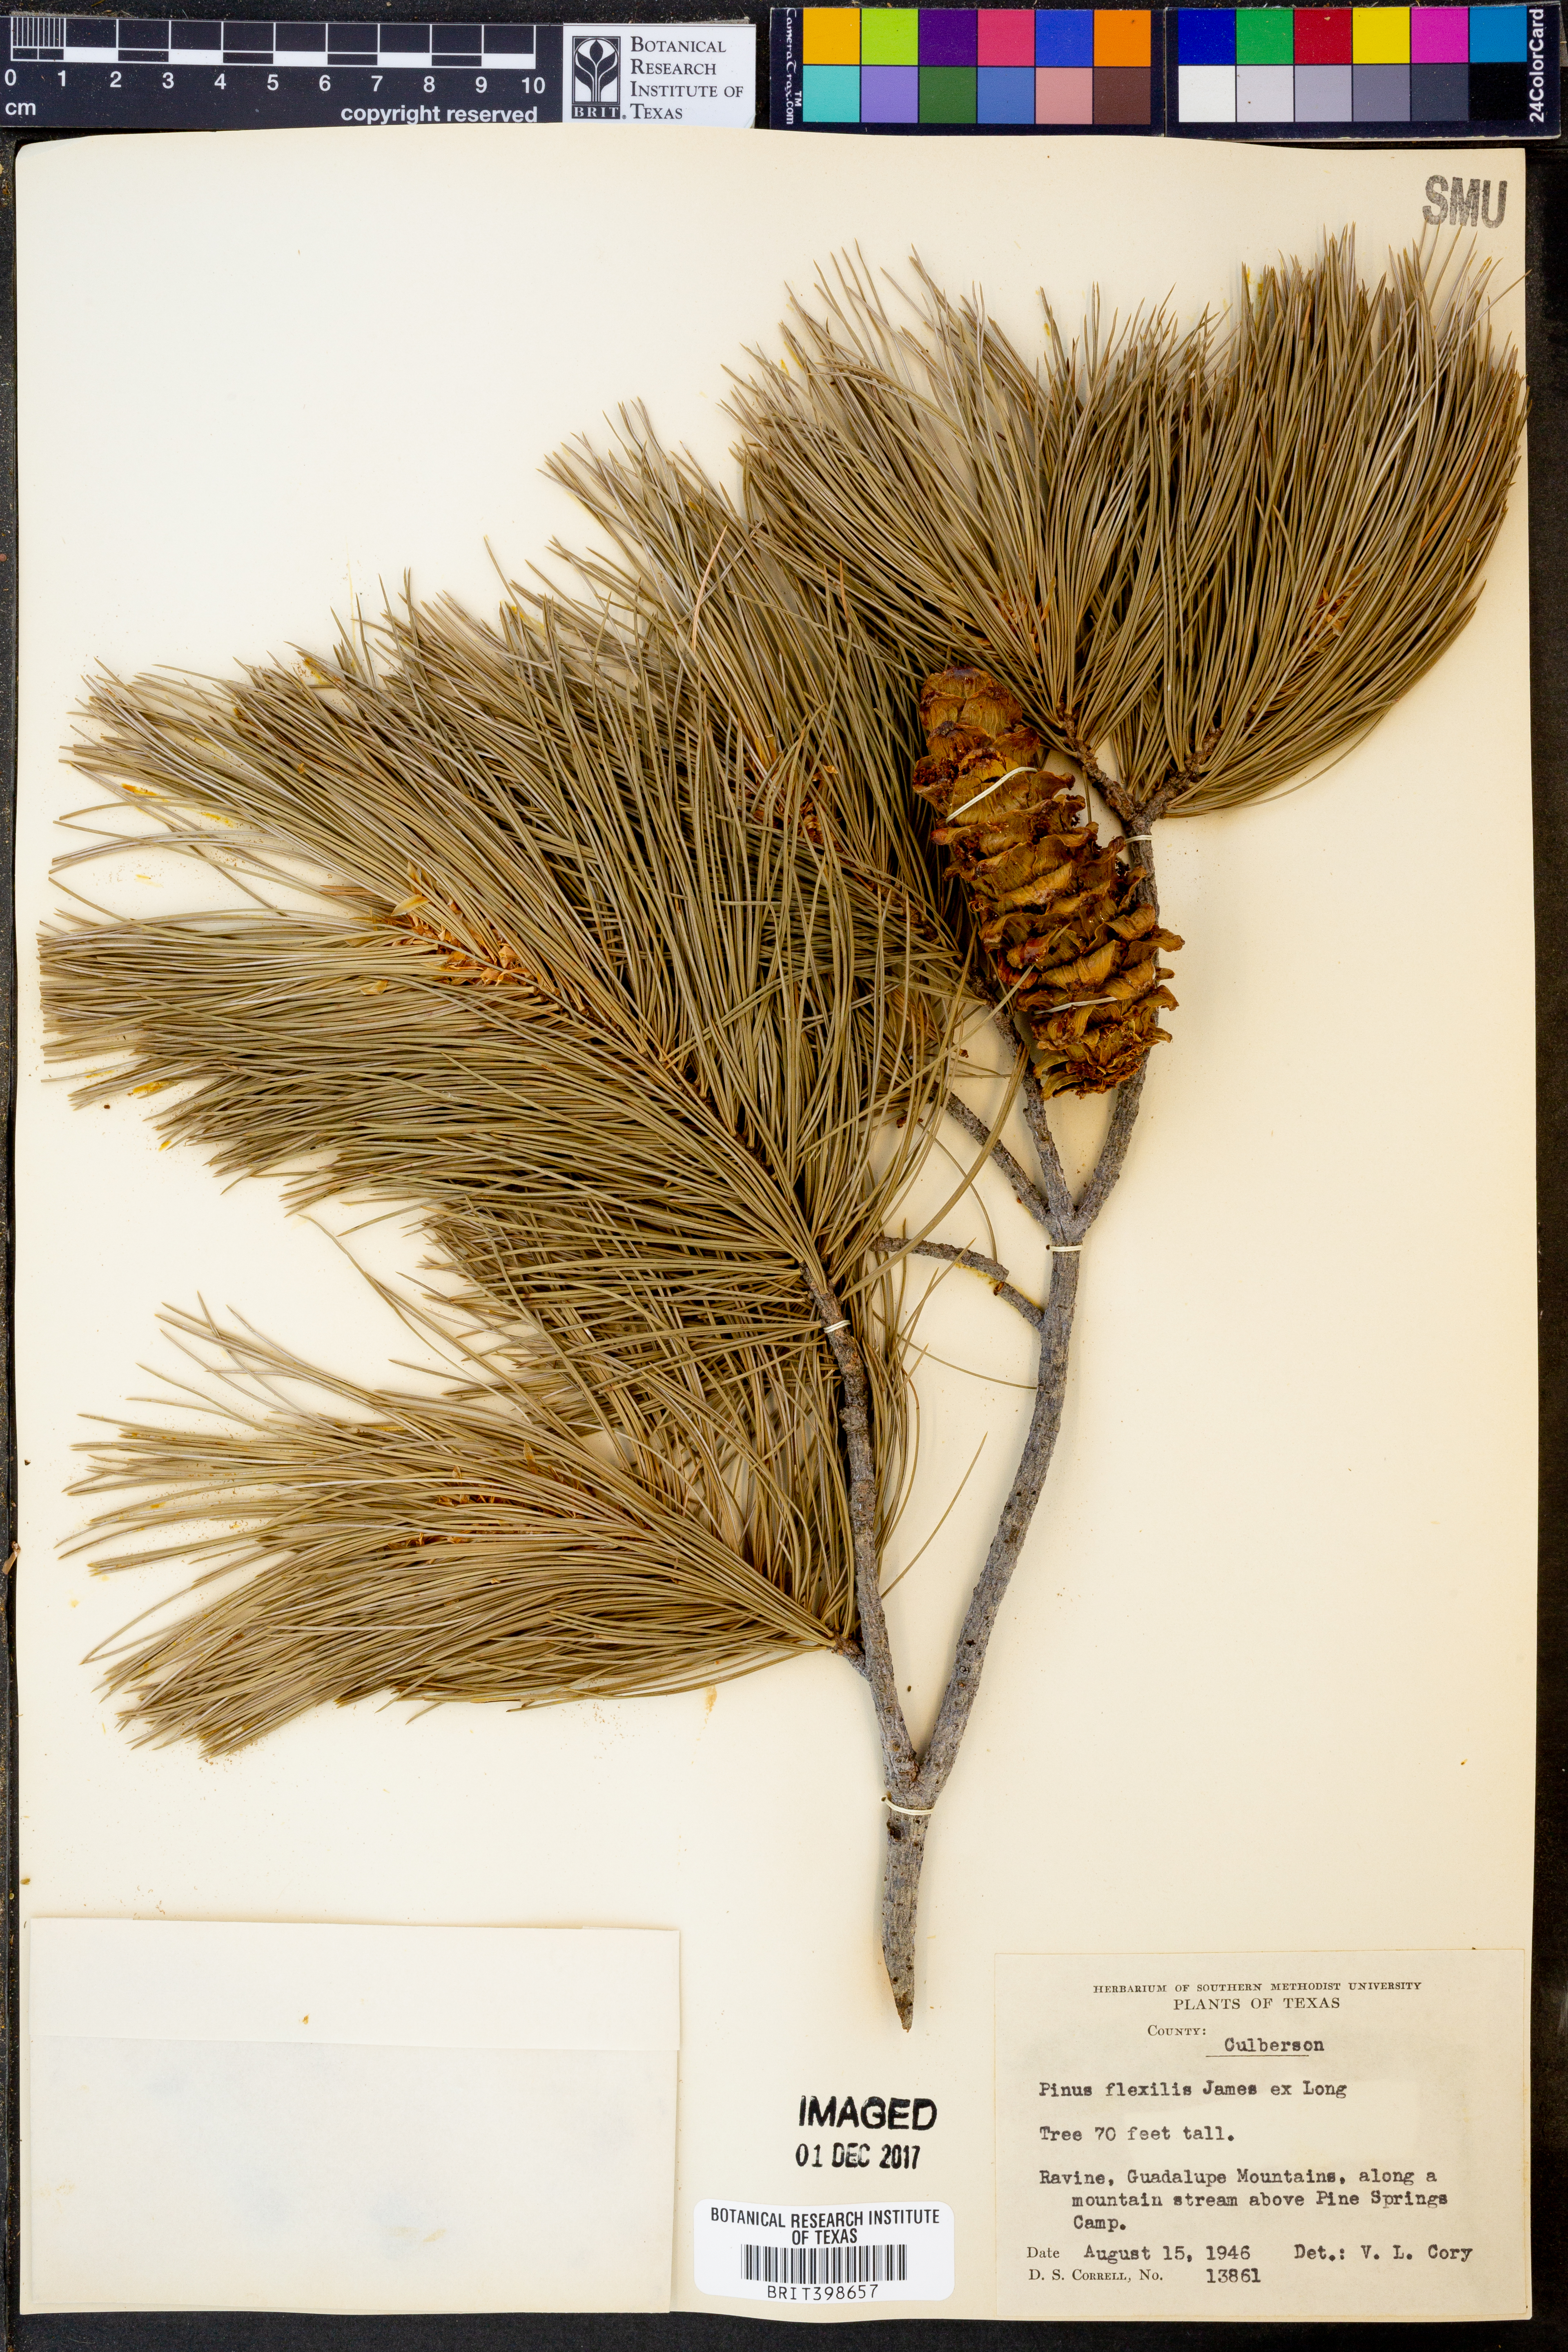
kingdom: Plantae
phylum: Tracheophyta
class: Pinopsida
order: Pinales
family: Pinaceae
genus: Pinus
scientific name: Pinus flexilis
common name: Limber pine
